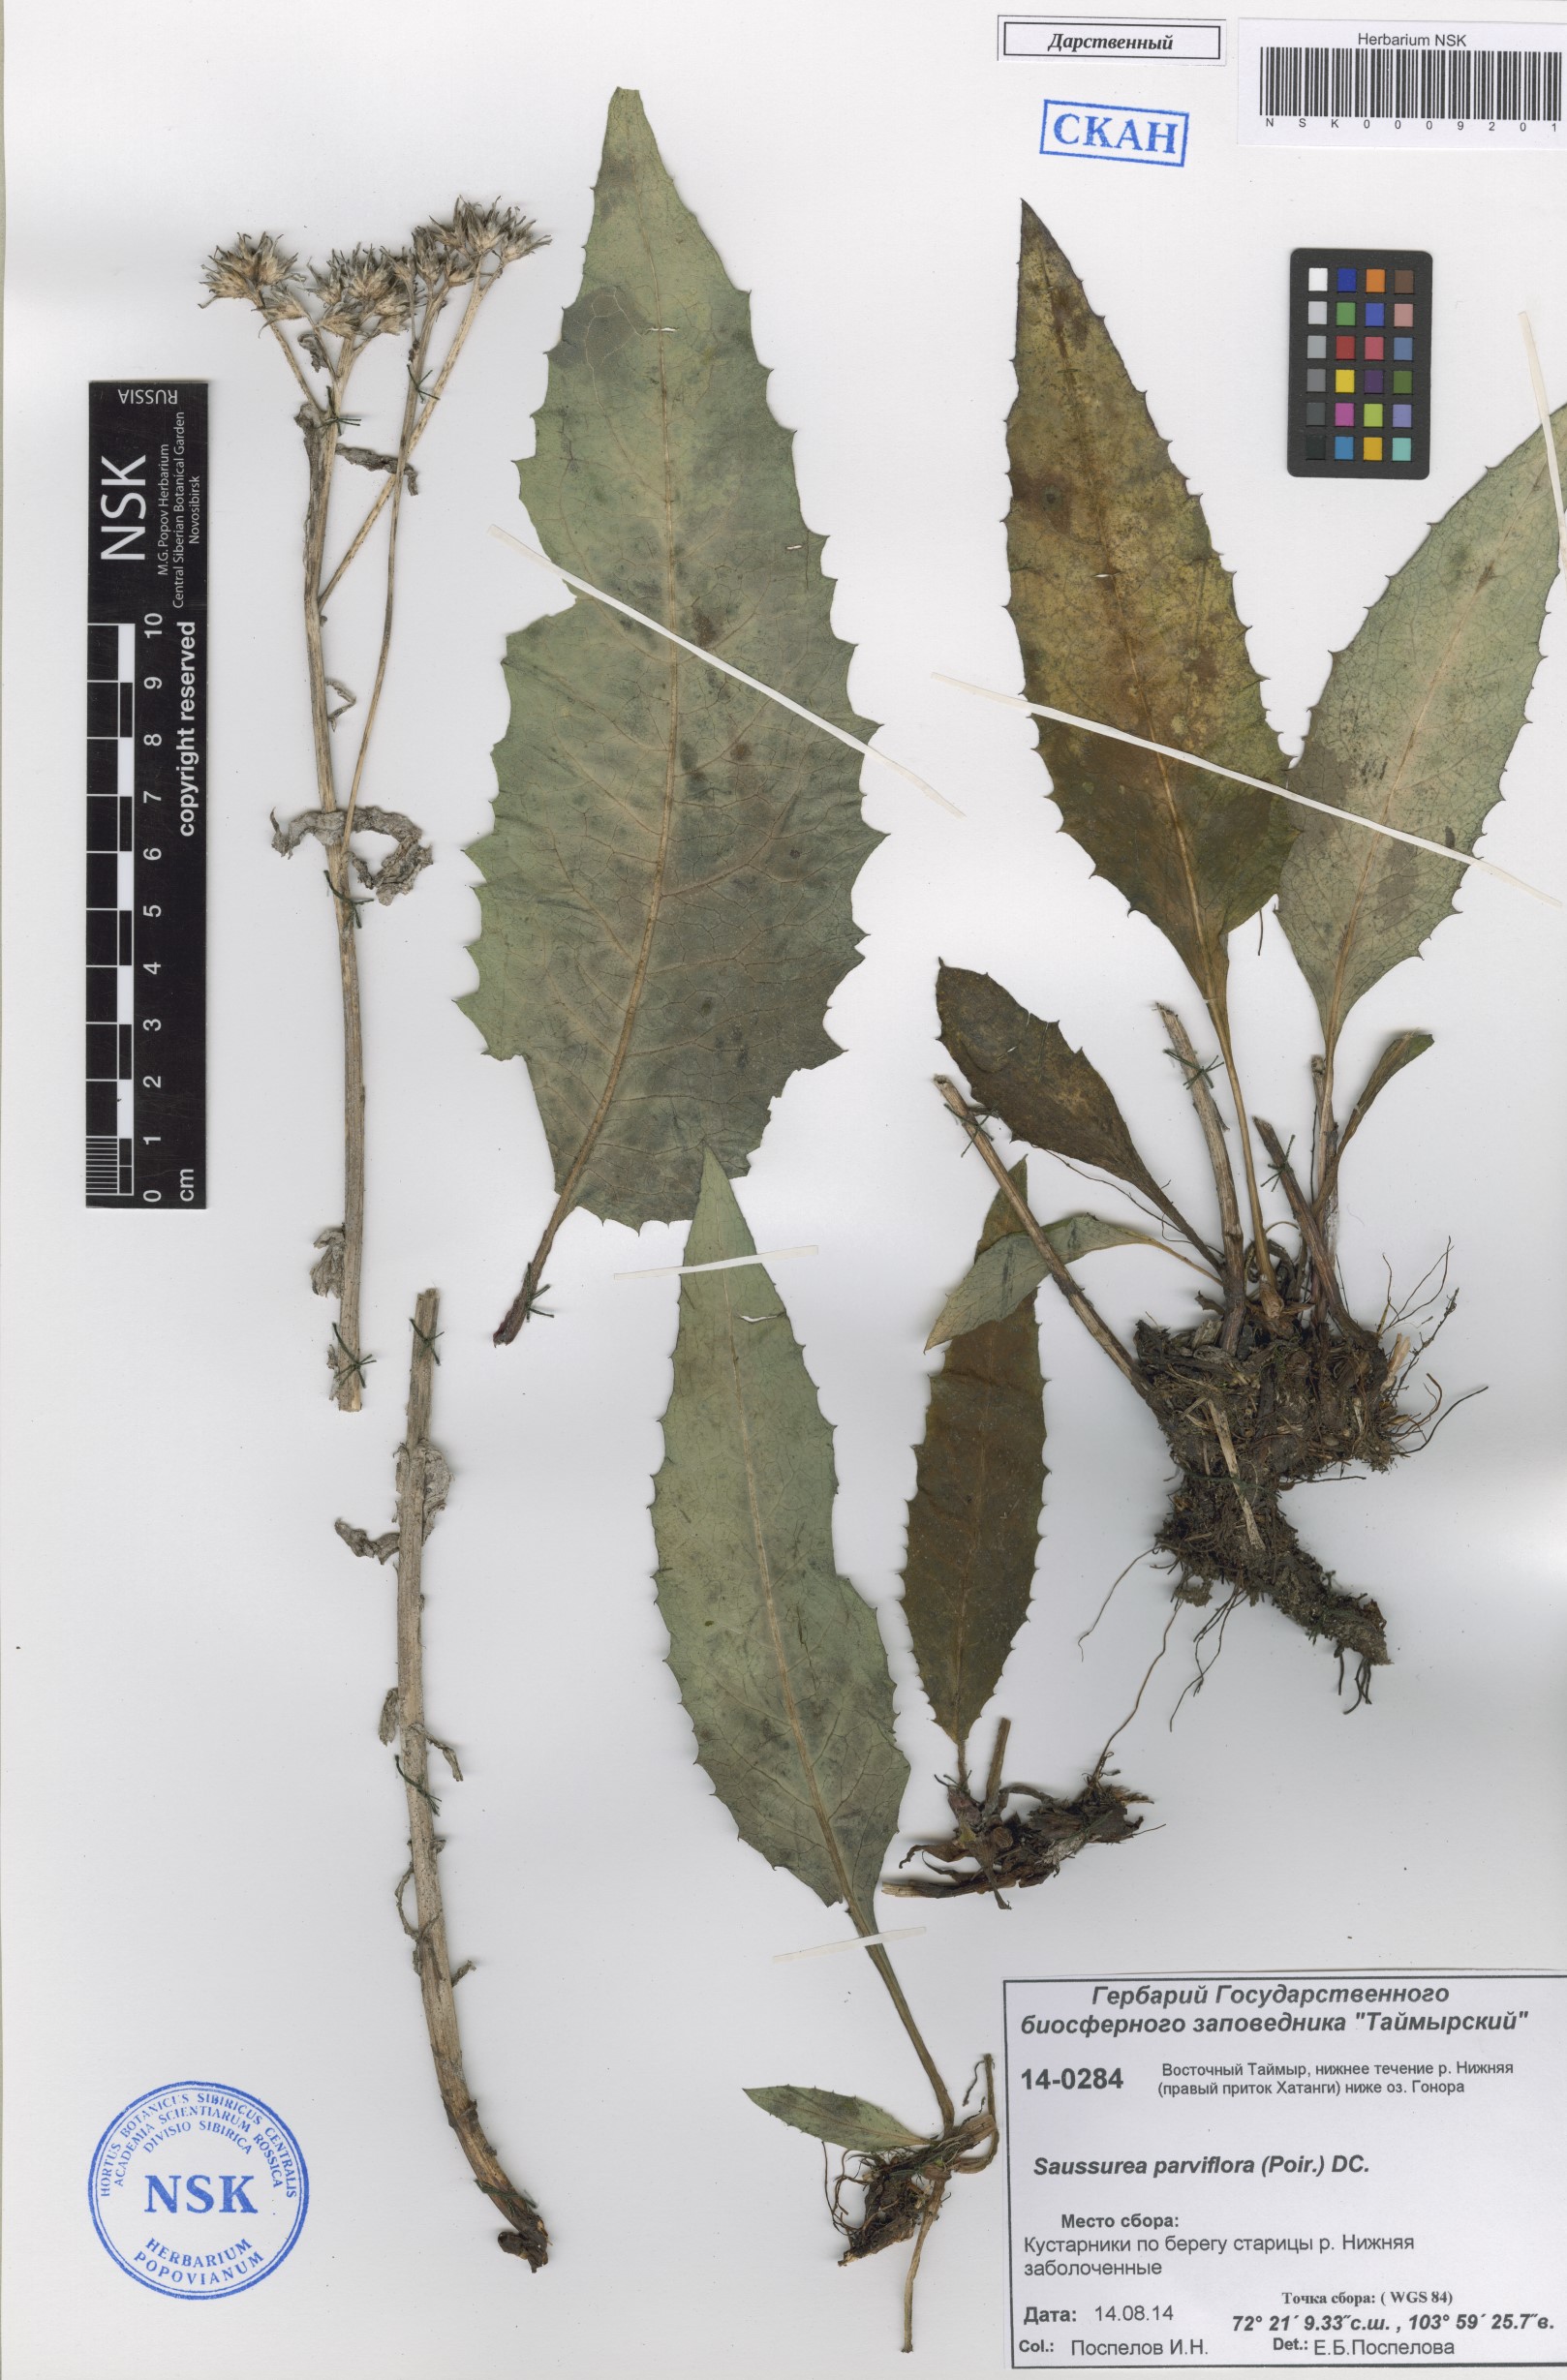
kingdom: Plantae
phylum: Tracheophyta
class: Magnoliopsida
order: Asterales
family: Asteraceae
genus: Saussurea
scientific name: Saussurea parviflora
